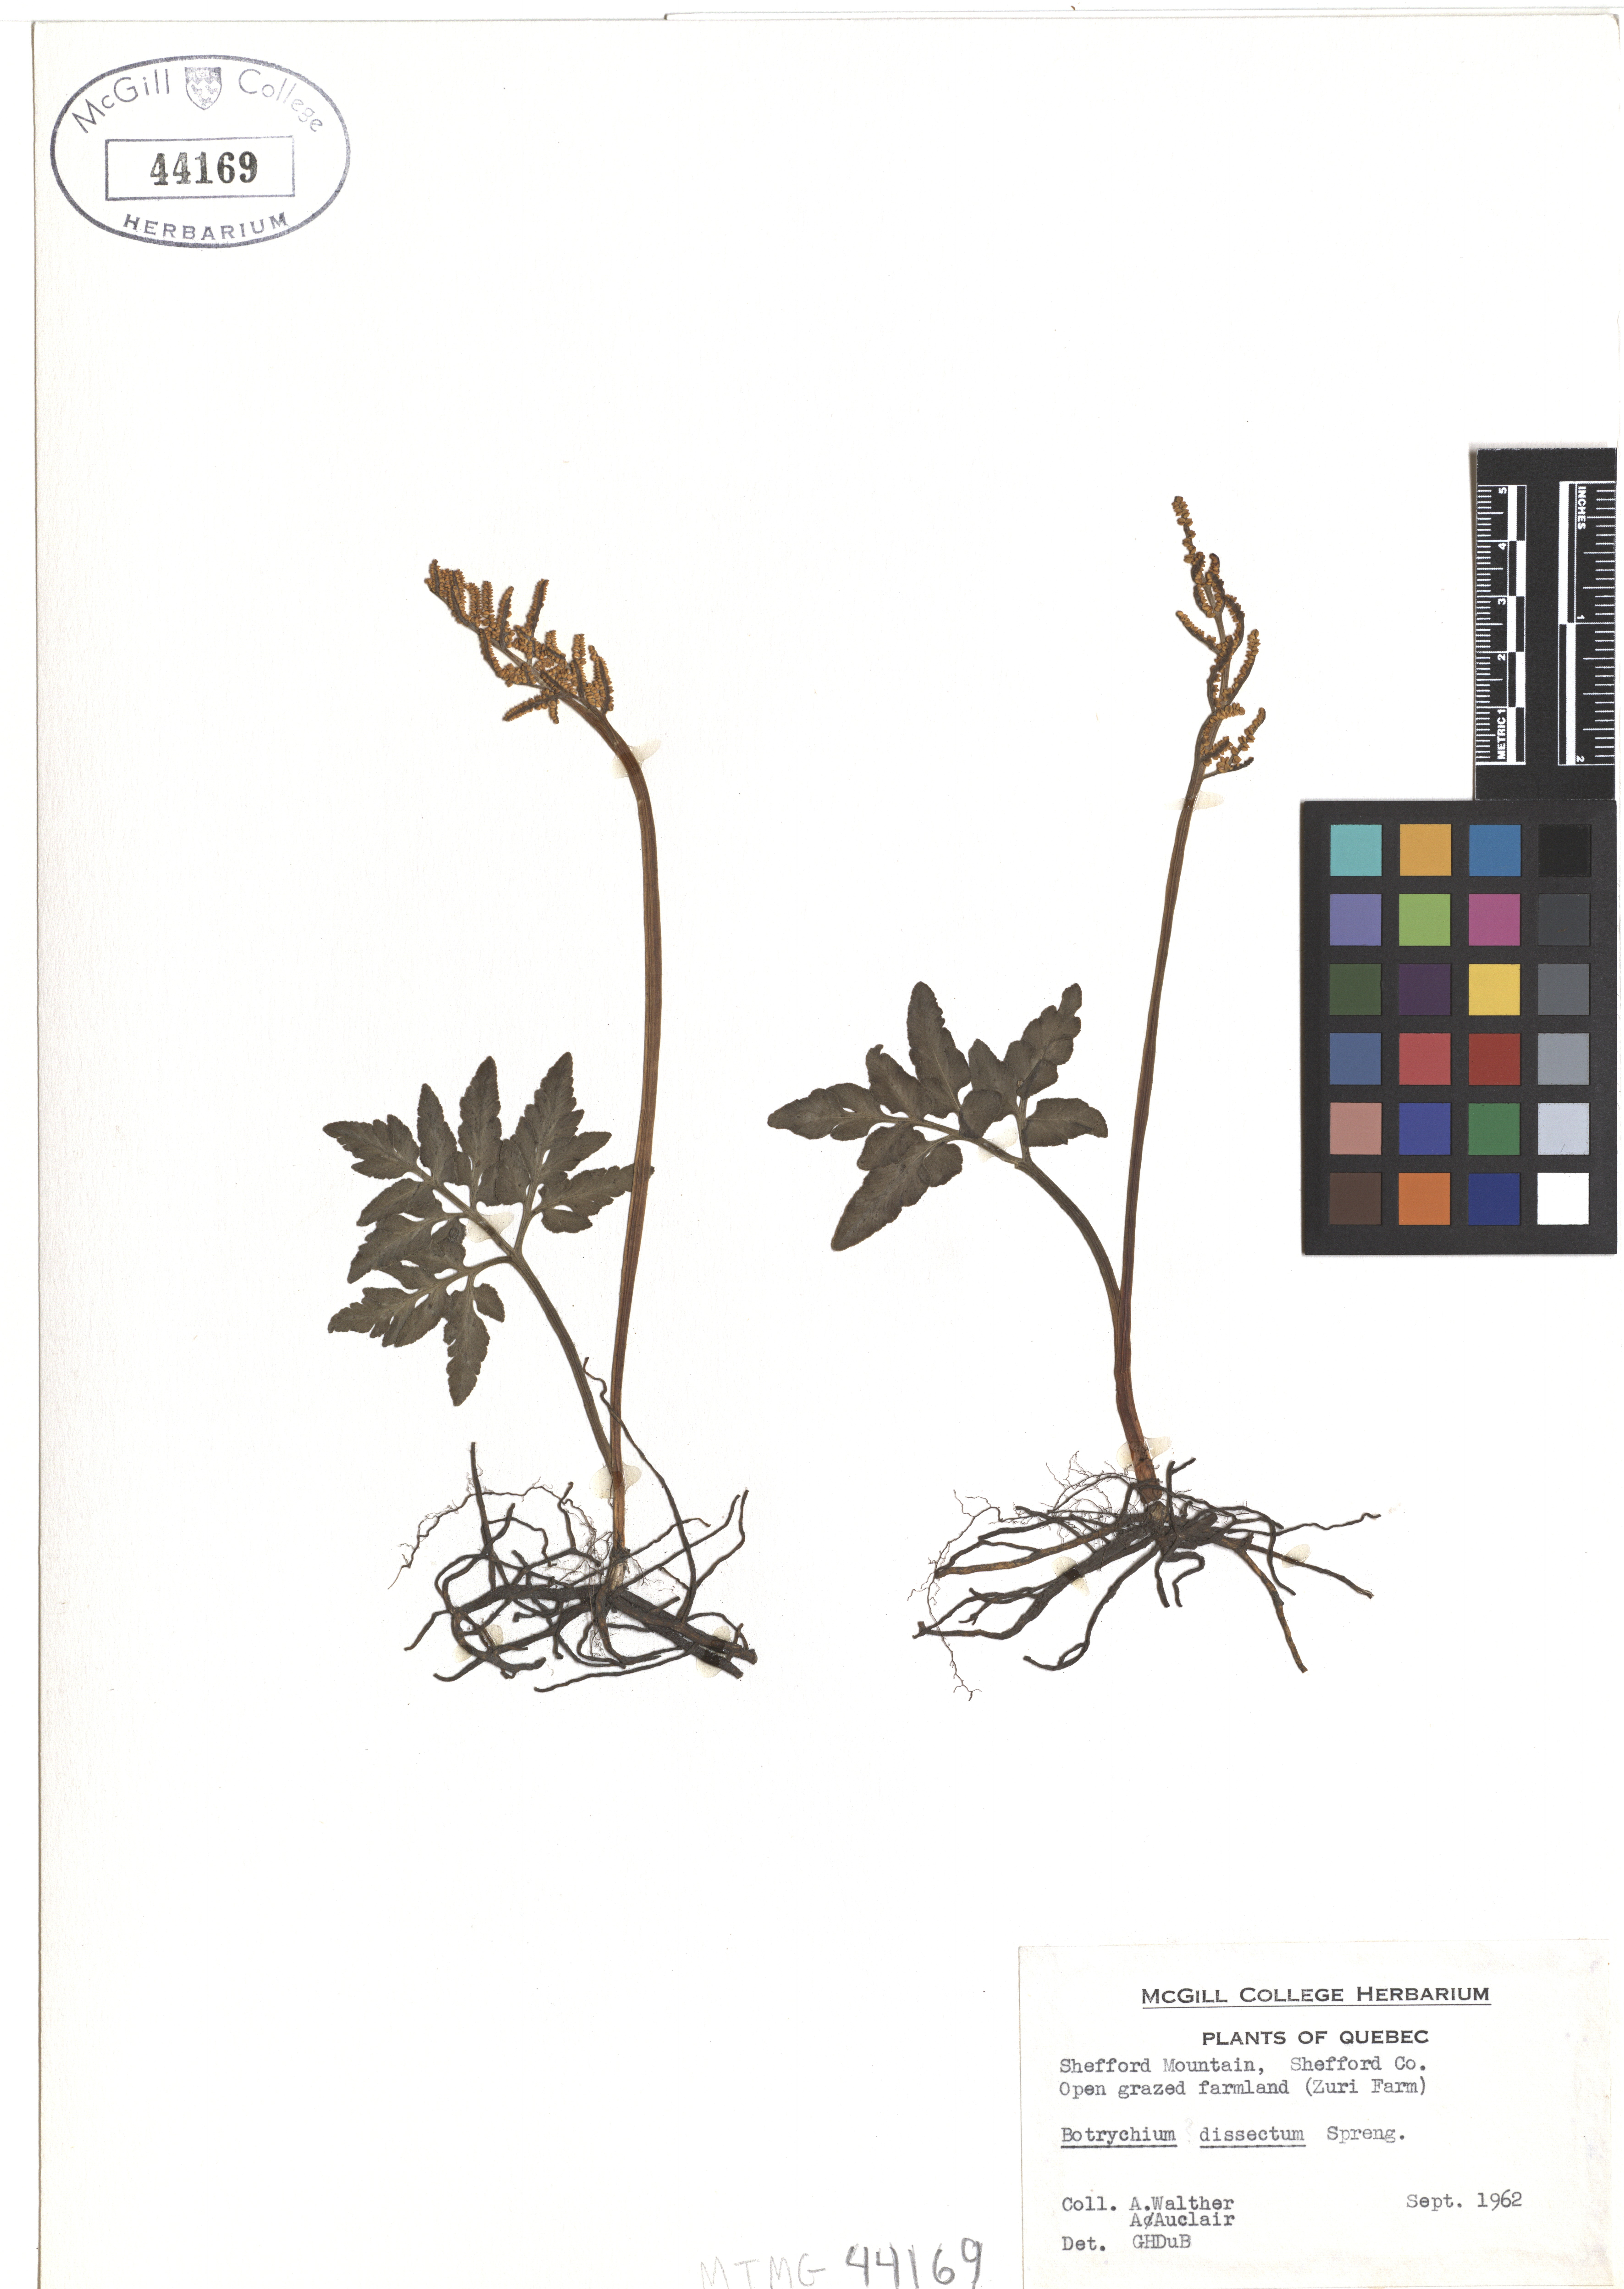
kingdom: Plantae
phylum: Tracheophyta
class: Polypodiopsida
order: Ophioglossales
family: Ophioglossaceae
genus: Sceptridium
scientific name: Sceptridium dissectum
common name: Cut-leaved grapefern
